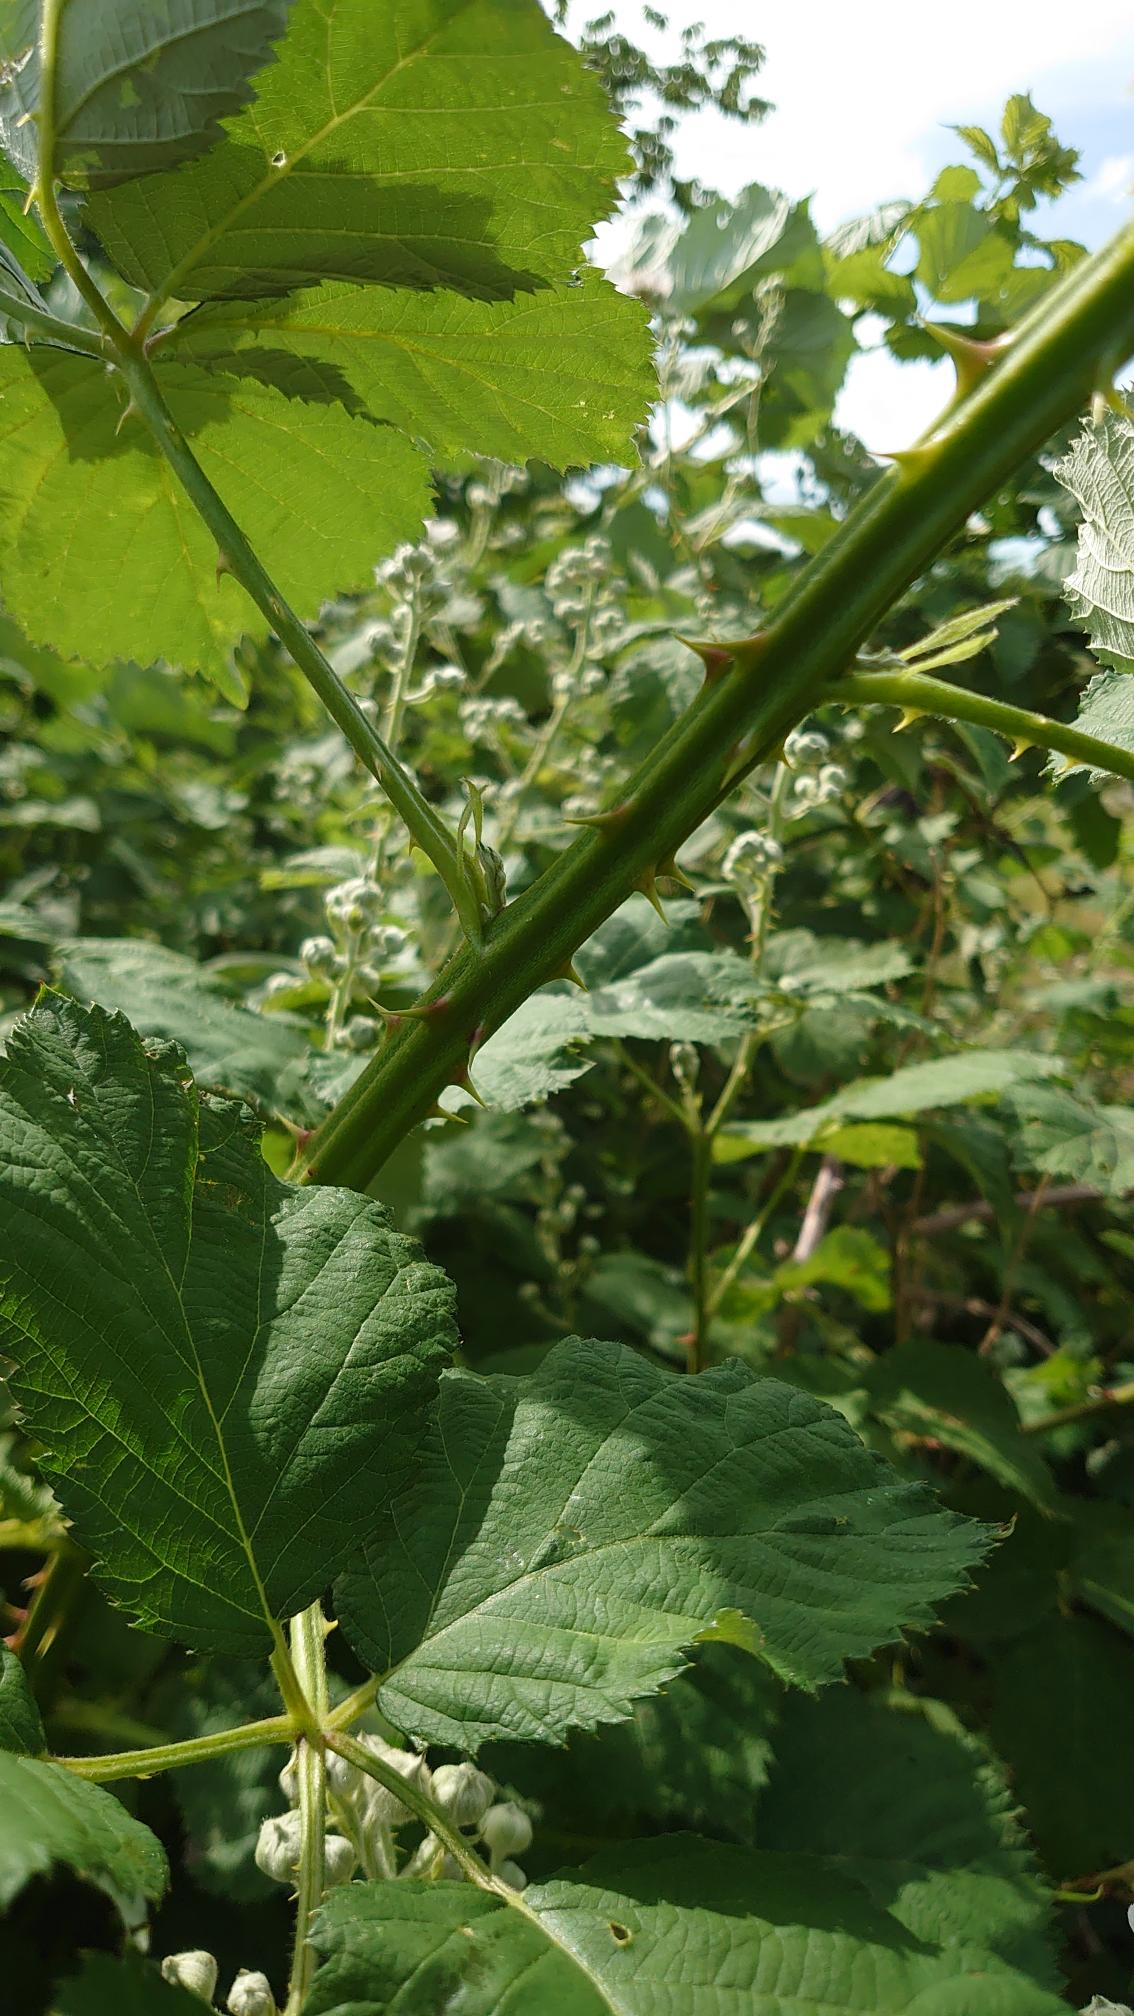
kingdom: Plantae
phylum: Tracheophyta
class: Magnoliopsida
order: Rosales
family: Rosaceae
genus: Rubus
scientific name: Rubus armeniacus
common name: Armensk brombær
